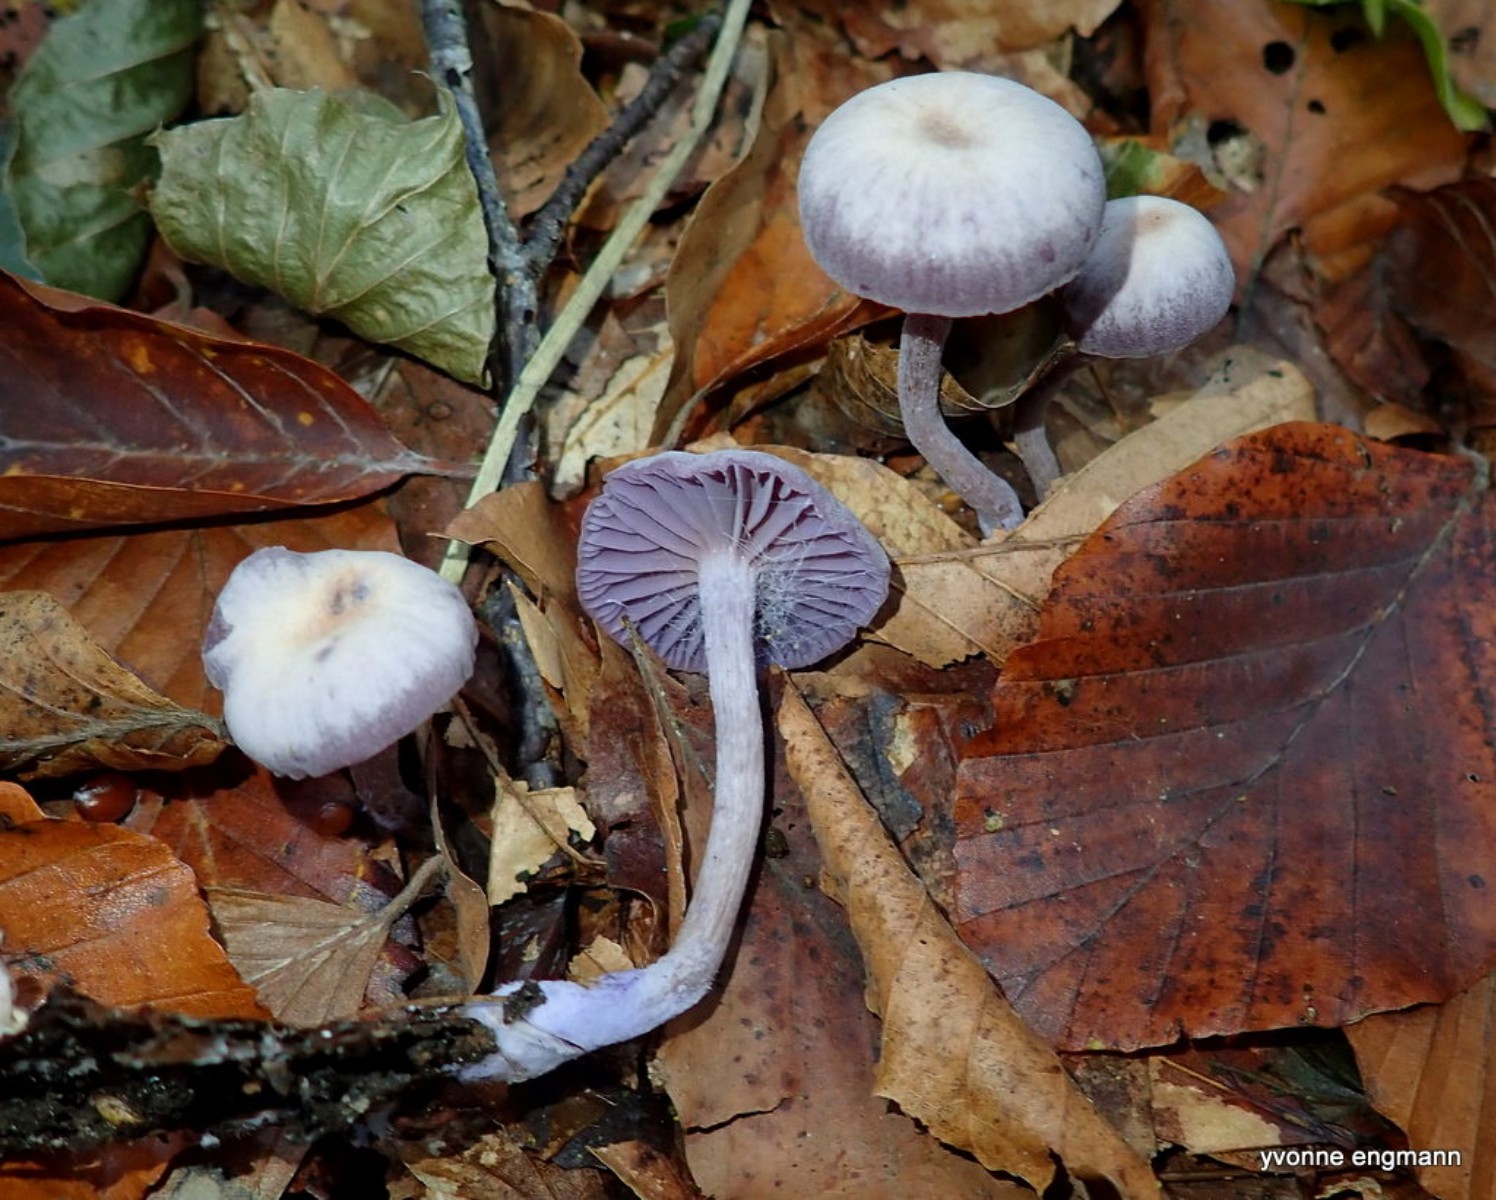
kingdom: Fungi
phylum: Basidiomycota
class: Agaricomycetes
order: Agaricales
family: Hydnangiaceae
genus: Laccaria
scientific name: Laccaria amethystina
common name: violet ametysthat
